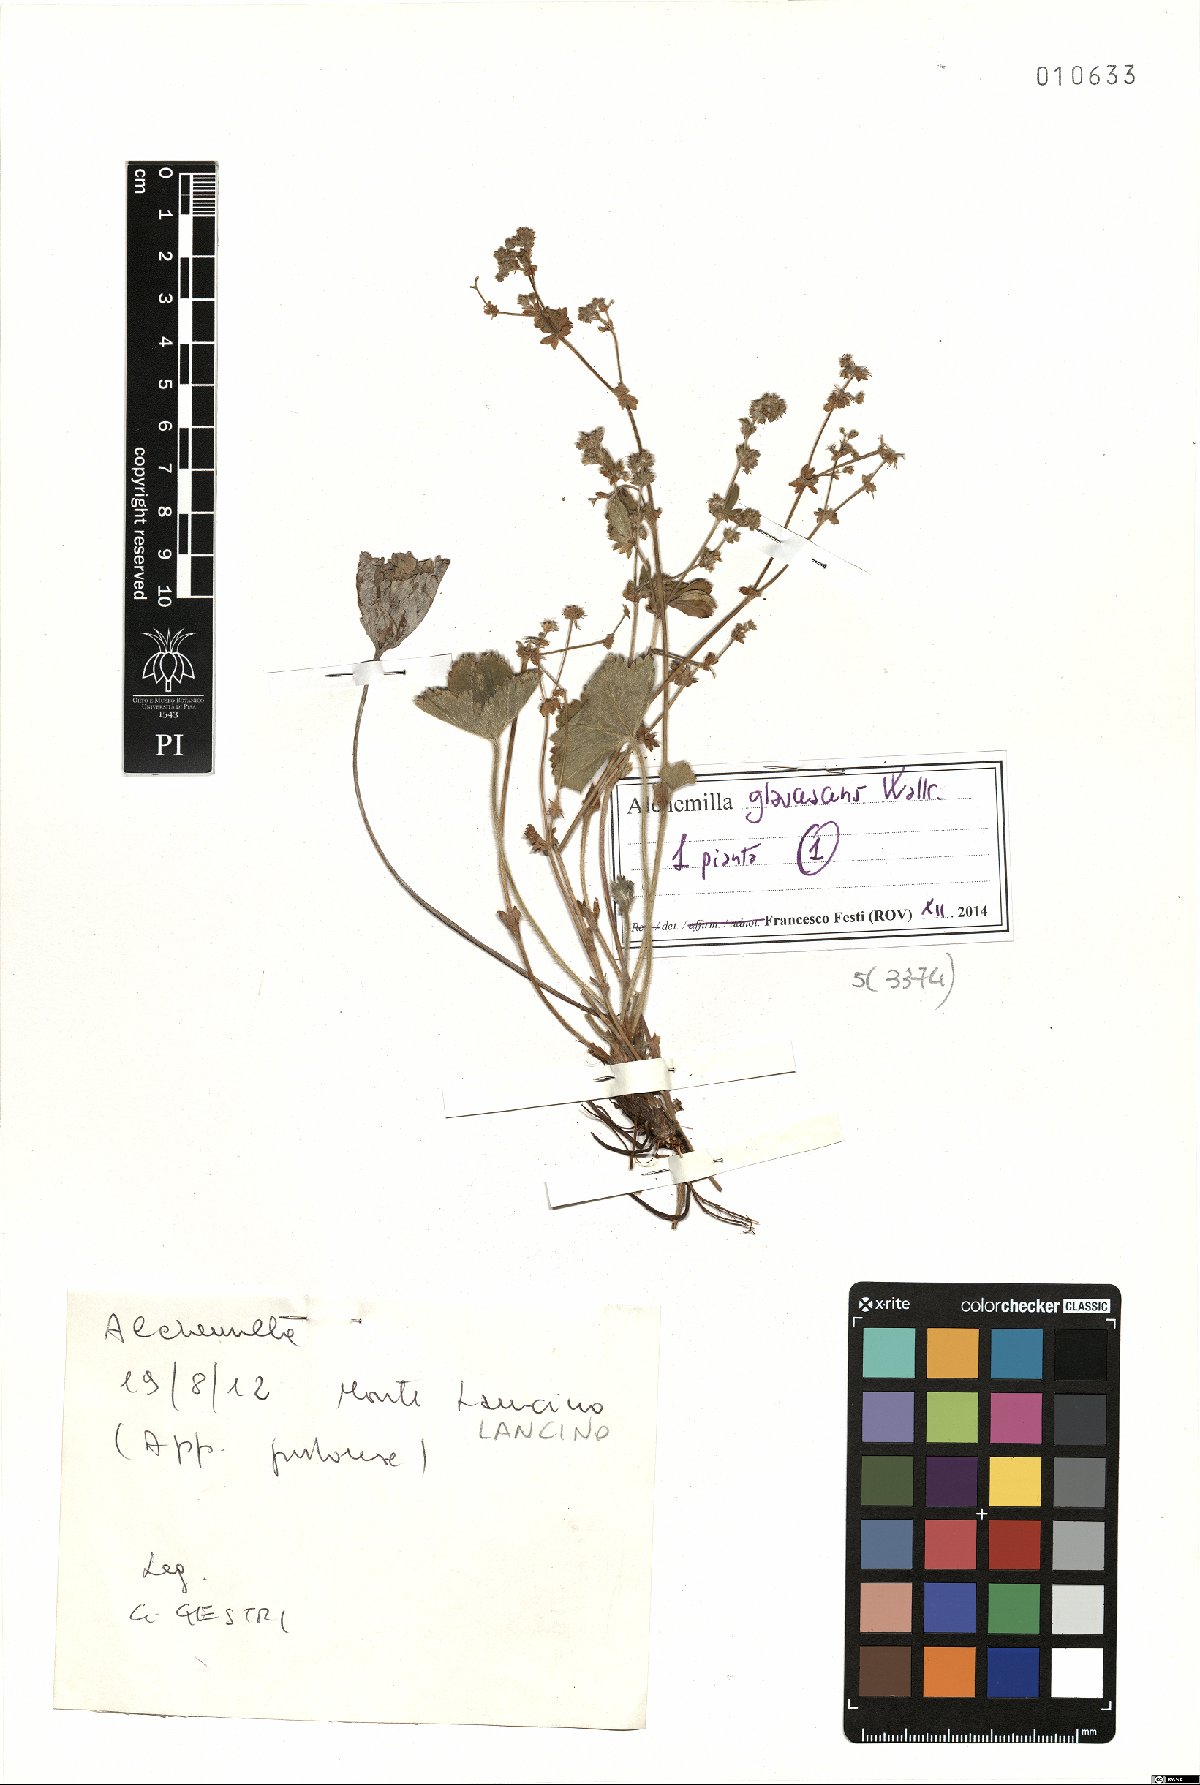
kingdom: Plantae
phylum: Tracheophyta
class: Magnoliopsida
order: Rosales
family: Rosaceae
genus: Alchemilla
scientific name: Alchemilla glaucescens
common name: Silky lady's mantle
